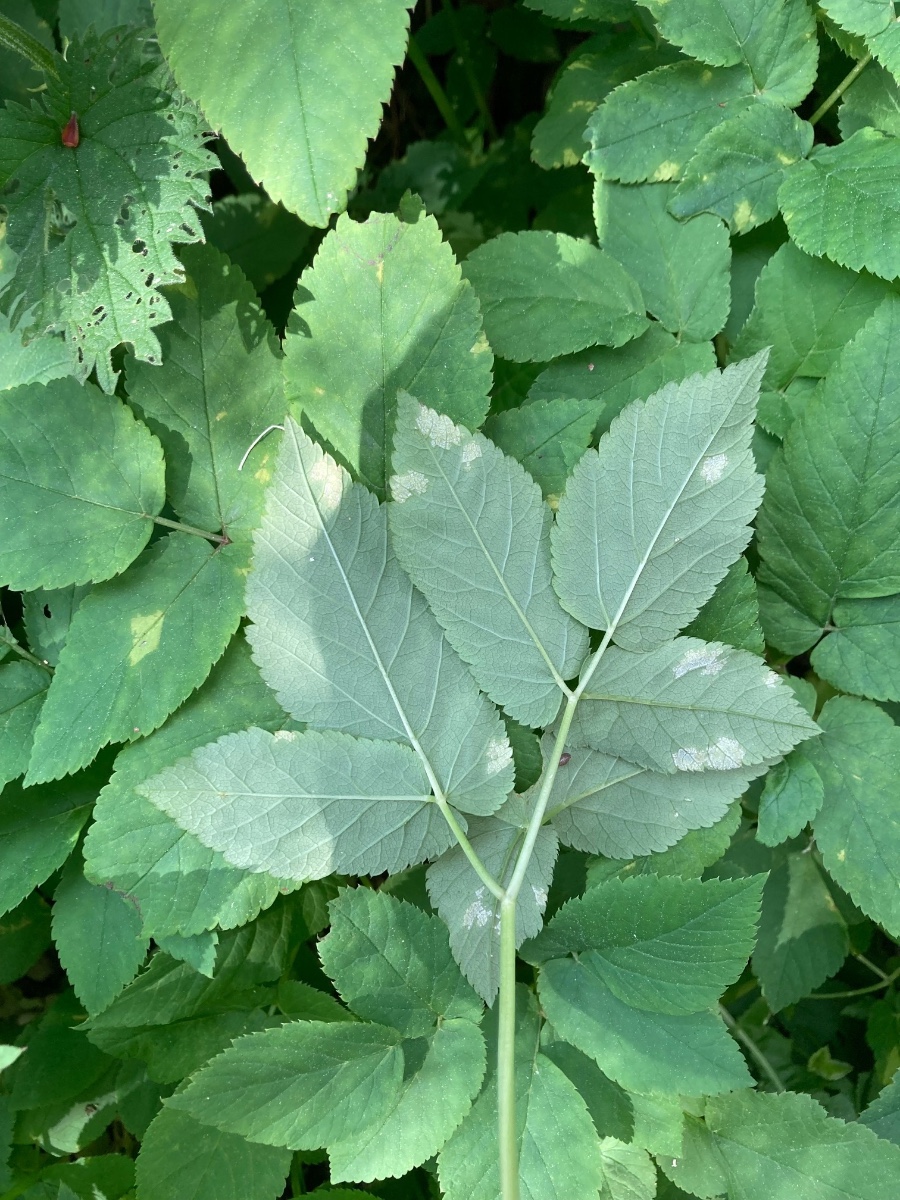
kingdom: Chromista
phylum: Oomycota
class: Peronosporea
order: Peronosporales
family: Peronosporaceae
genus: Peronospora
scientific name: Peronospora crustosa
